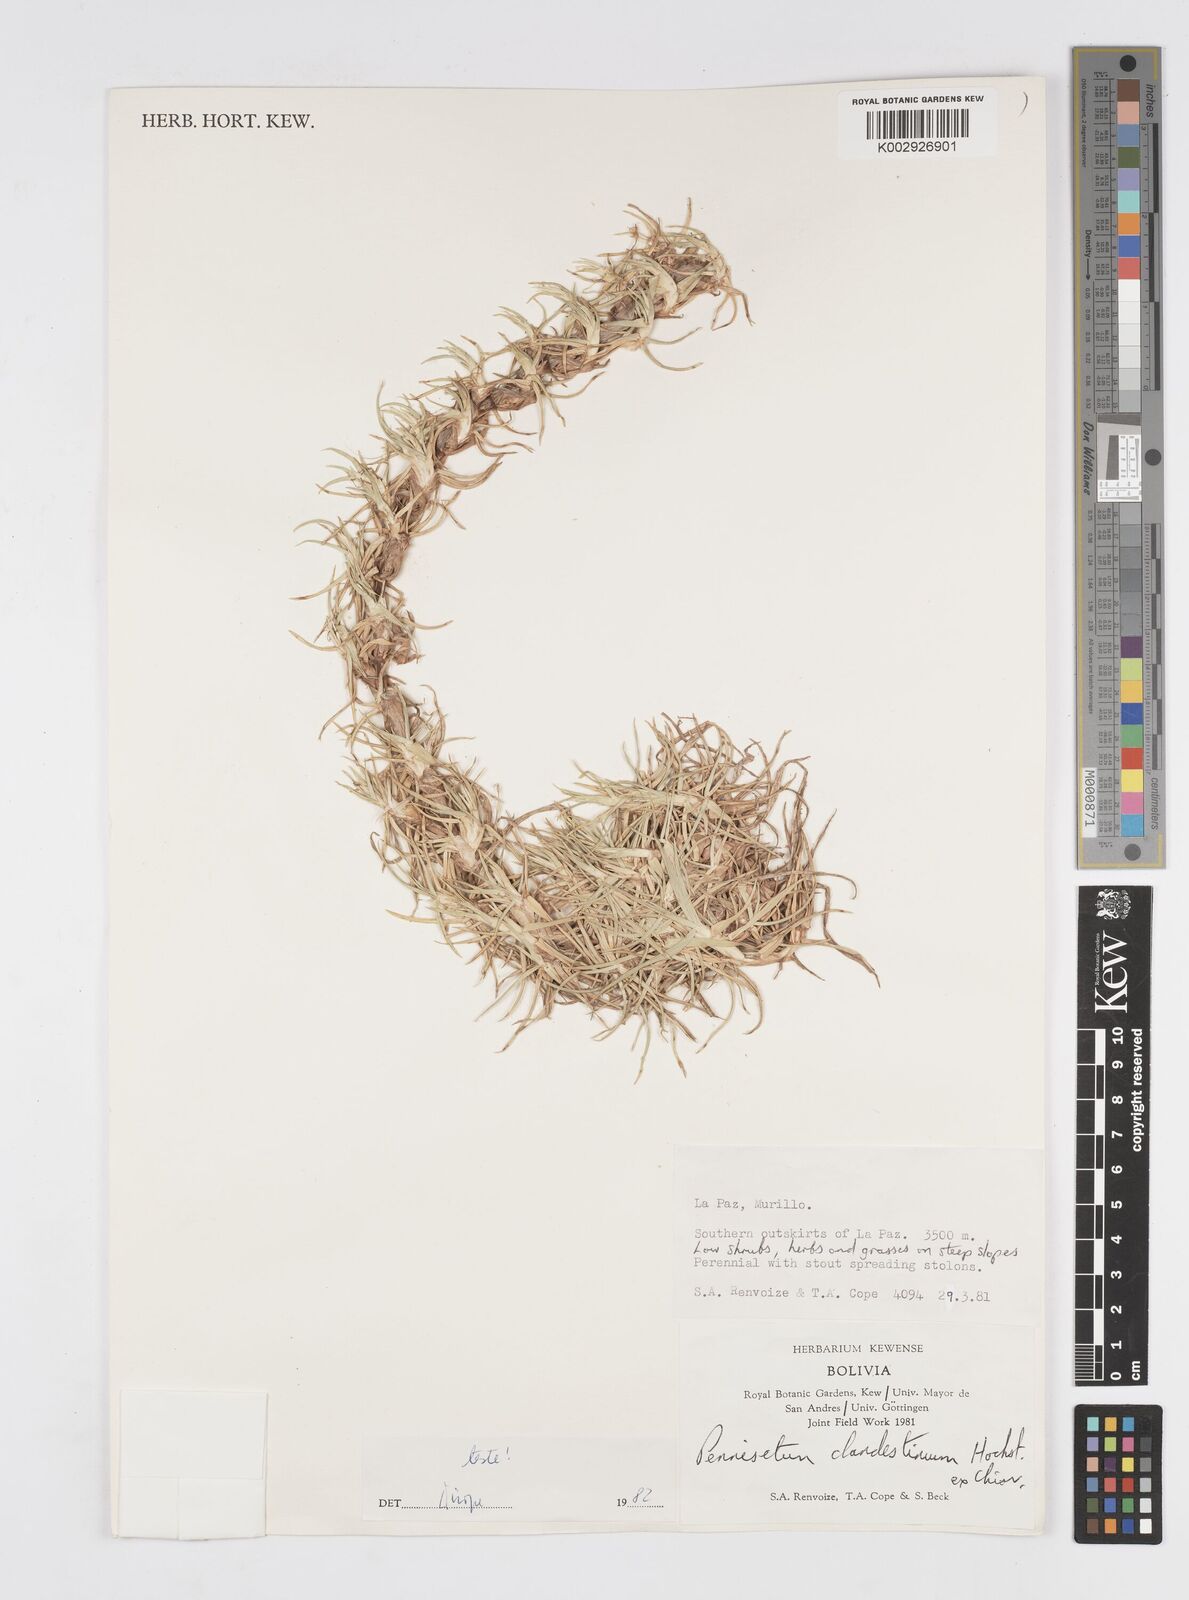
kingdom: Plantae
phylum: Tracheophyta
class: Liliopsida
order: Poales
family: Poaceae
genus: Cenchrus
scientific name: Cenchrus clandestinus
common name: Kikuyugrass
